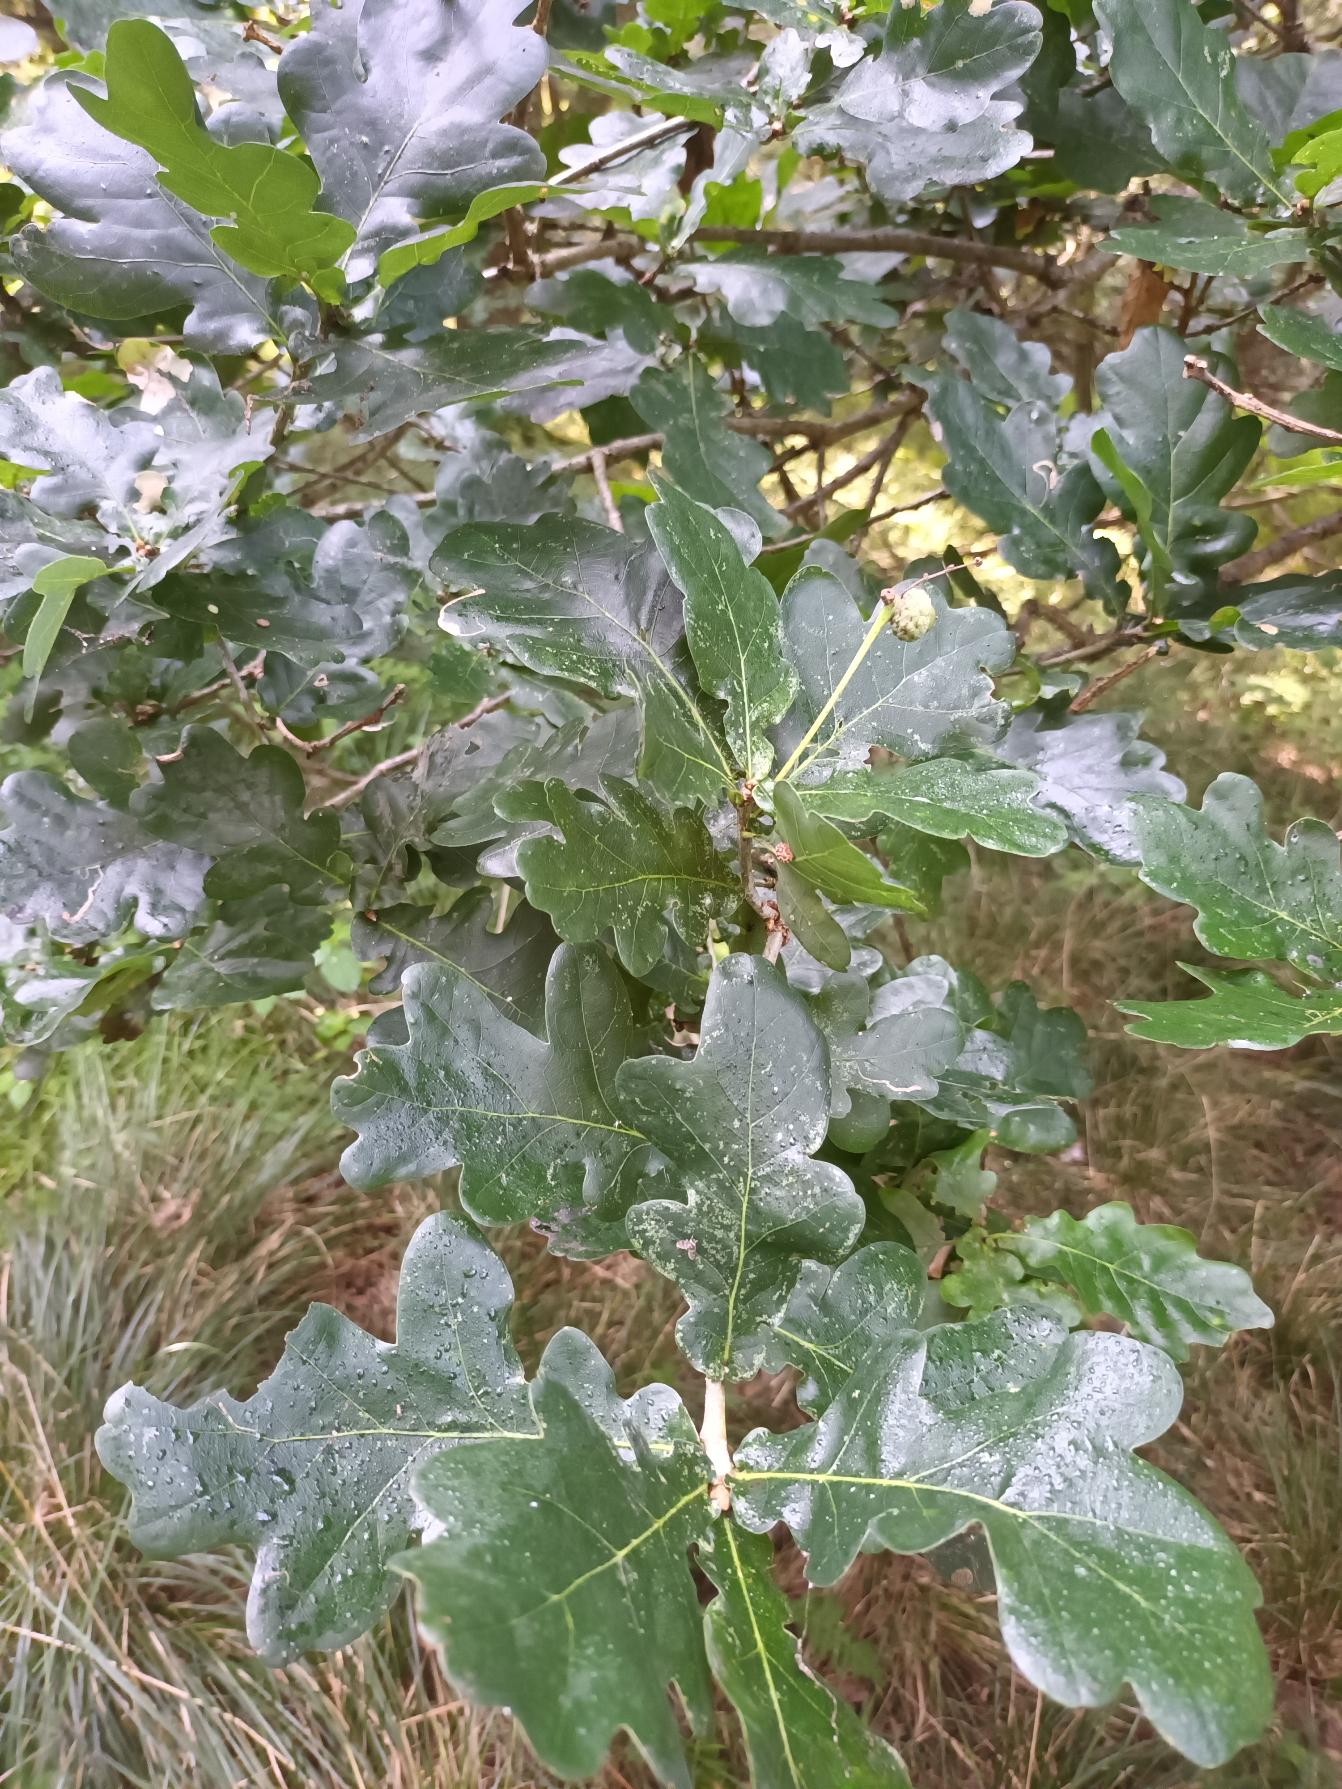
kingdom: Plantae
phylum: Tracheophyta
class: Magnoliopsida
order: Fagales
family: Fagaceae
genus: Quercus
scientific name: Quercus robur
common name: Stilk-eg/almindelig eg
